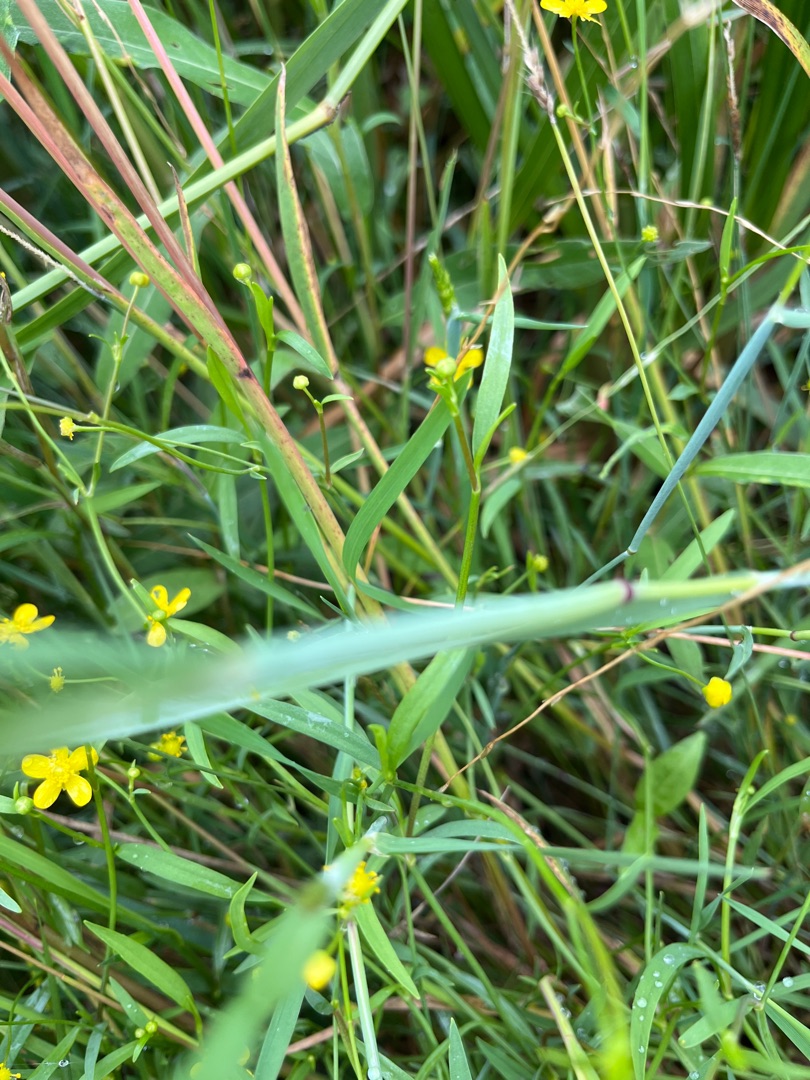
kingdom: Plantae
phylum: Tracheophyta
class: Magnoliopsida
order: Ranunculales
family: Ranunculaceae
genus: Ranunculus
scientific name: Ranunculus flammula
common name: Kær-ranunkel
